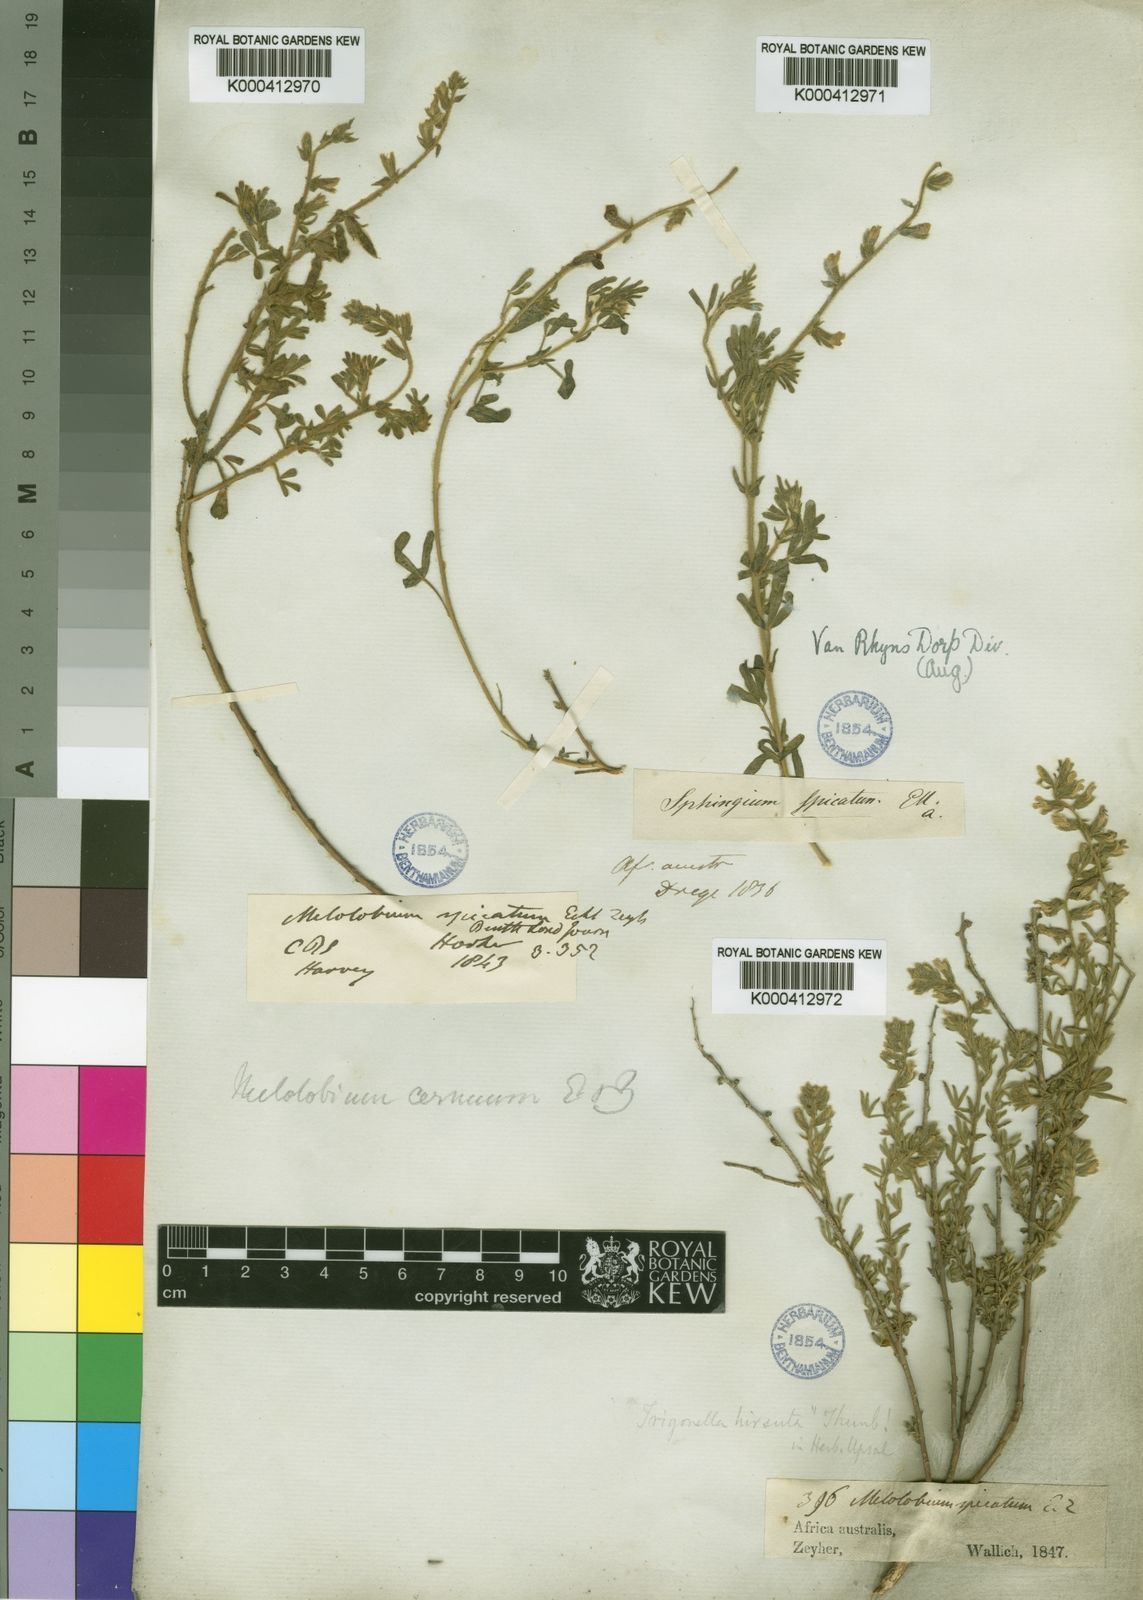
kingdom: Plantae
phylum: Tracheophyta
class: Magnoliopsida
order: Fabales
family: Fabaceae
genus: Melolobium
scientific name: Melolobium aethiopicum
